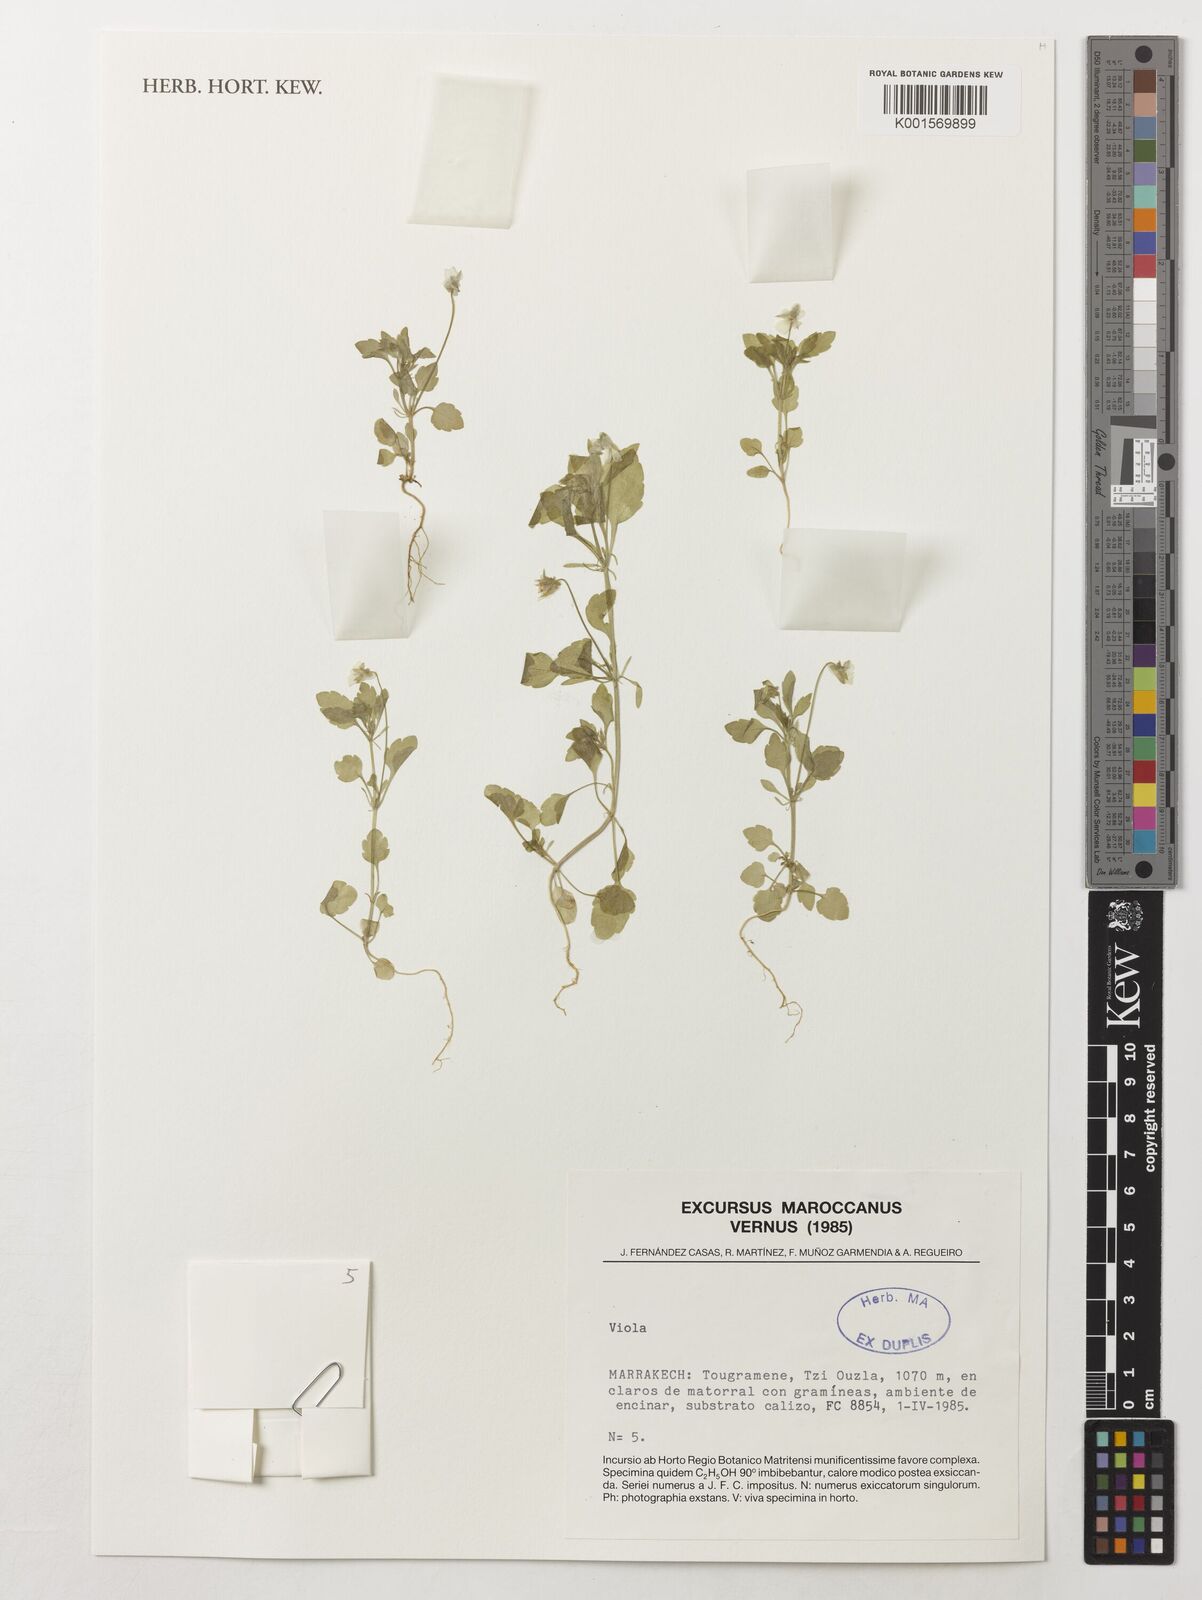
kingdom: Plantae
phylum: Tracheophyta
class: Magnoliopsida
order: Malpighiales
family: Violaceae
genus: Viola
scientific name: Viola
